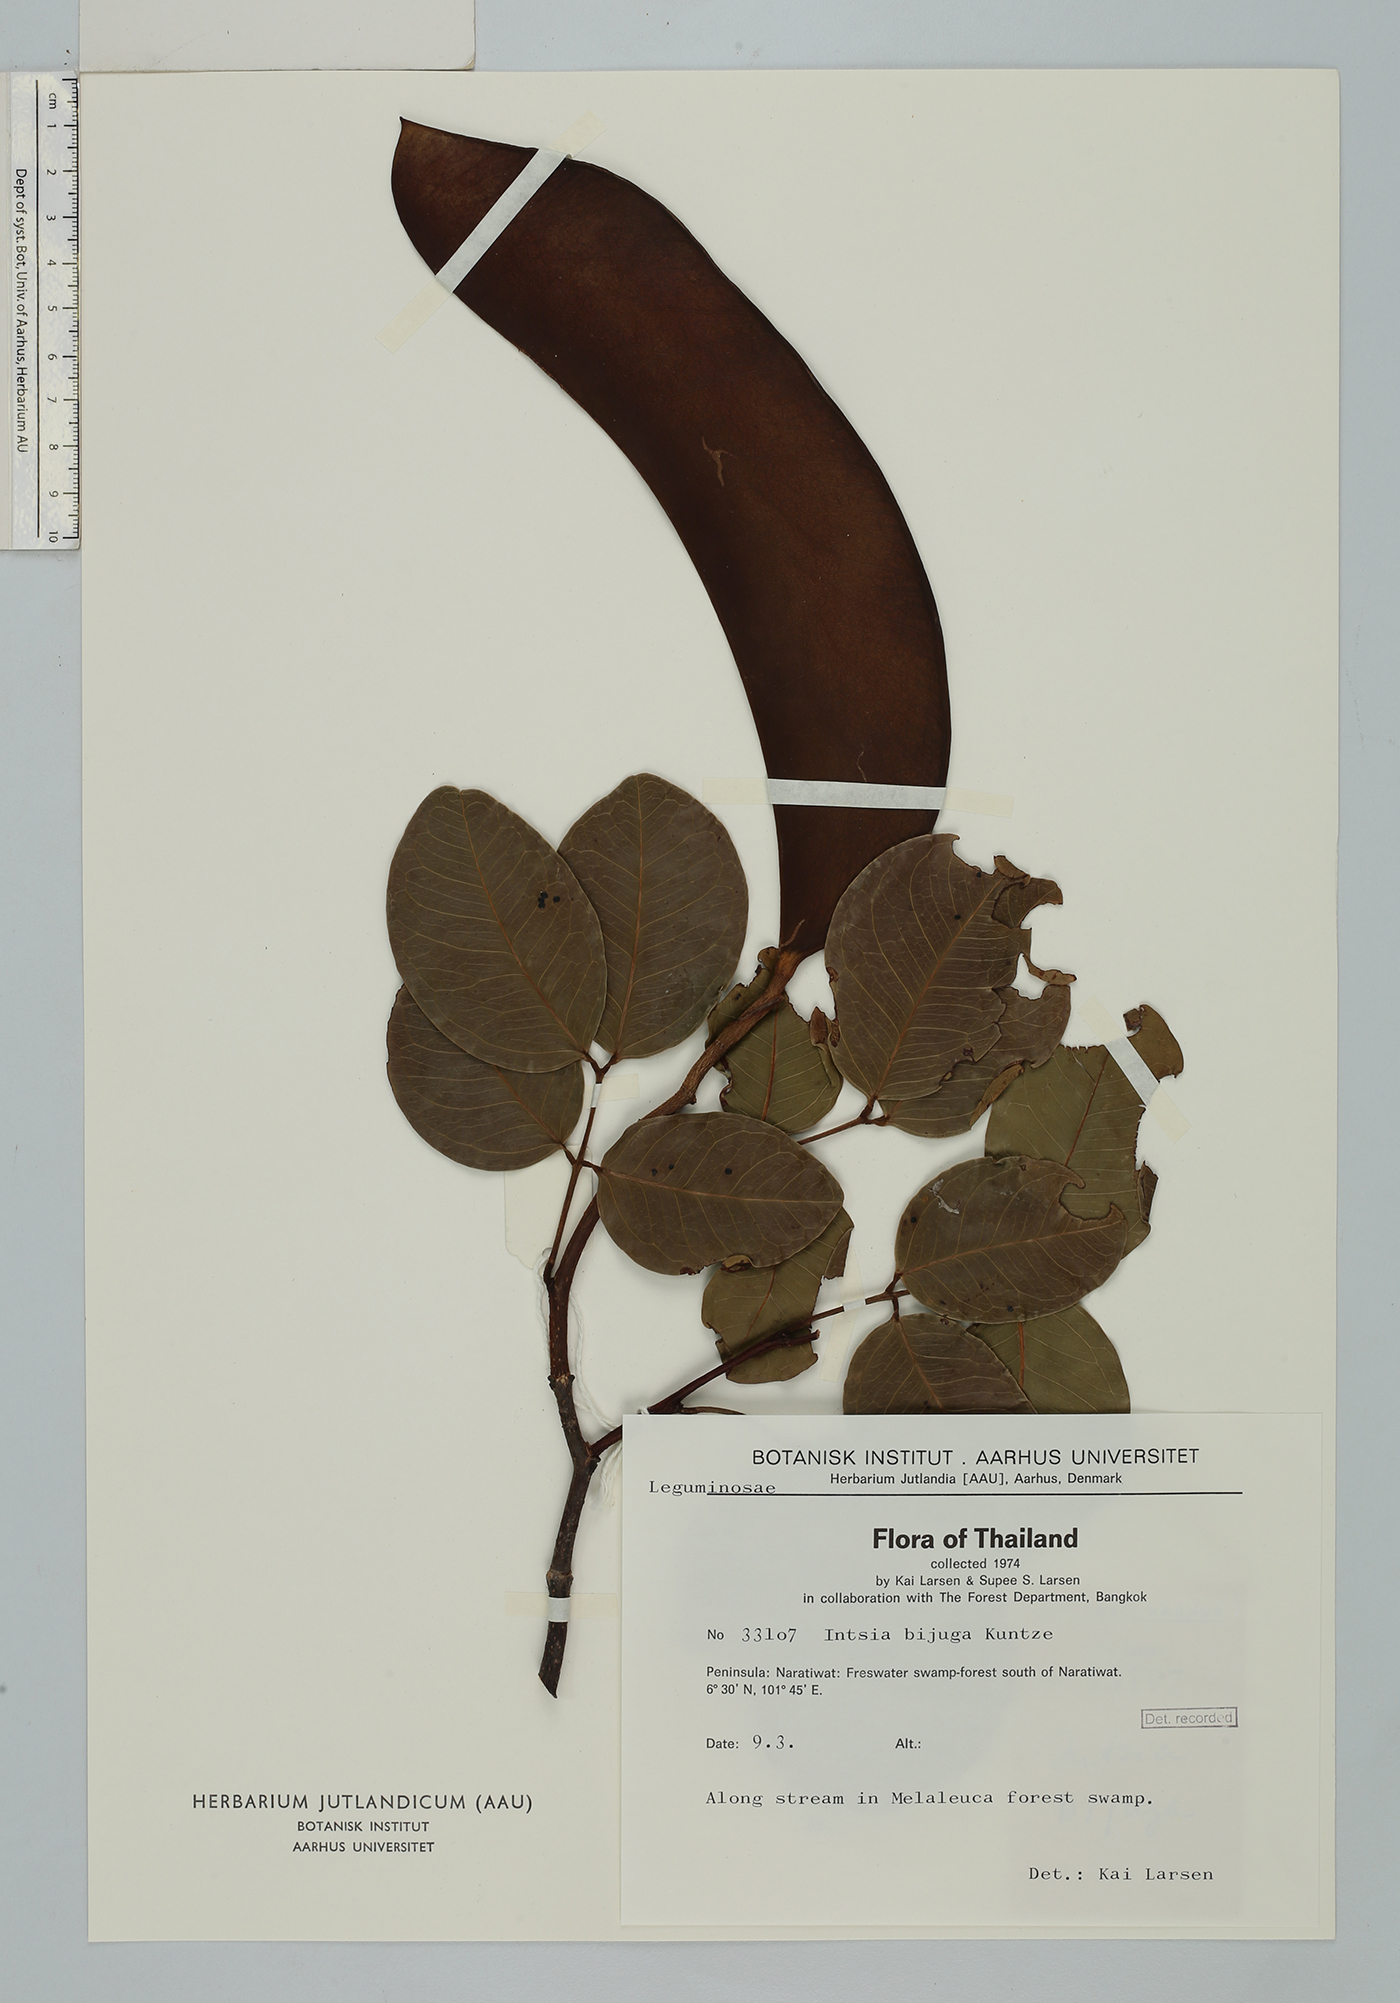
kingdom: Plantae
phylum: Tracheophyta
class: Magnoliopsida
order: Fabales
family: Fabaceae
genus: Intsia
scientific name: Intsia bijuga
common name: Moluccan ironwood
